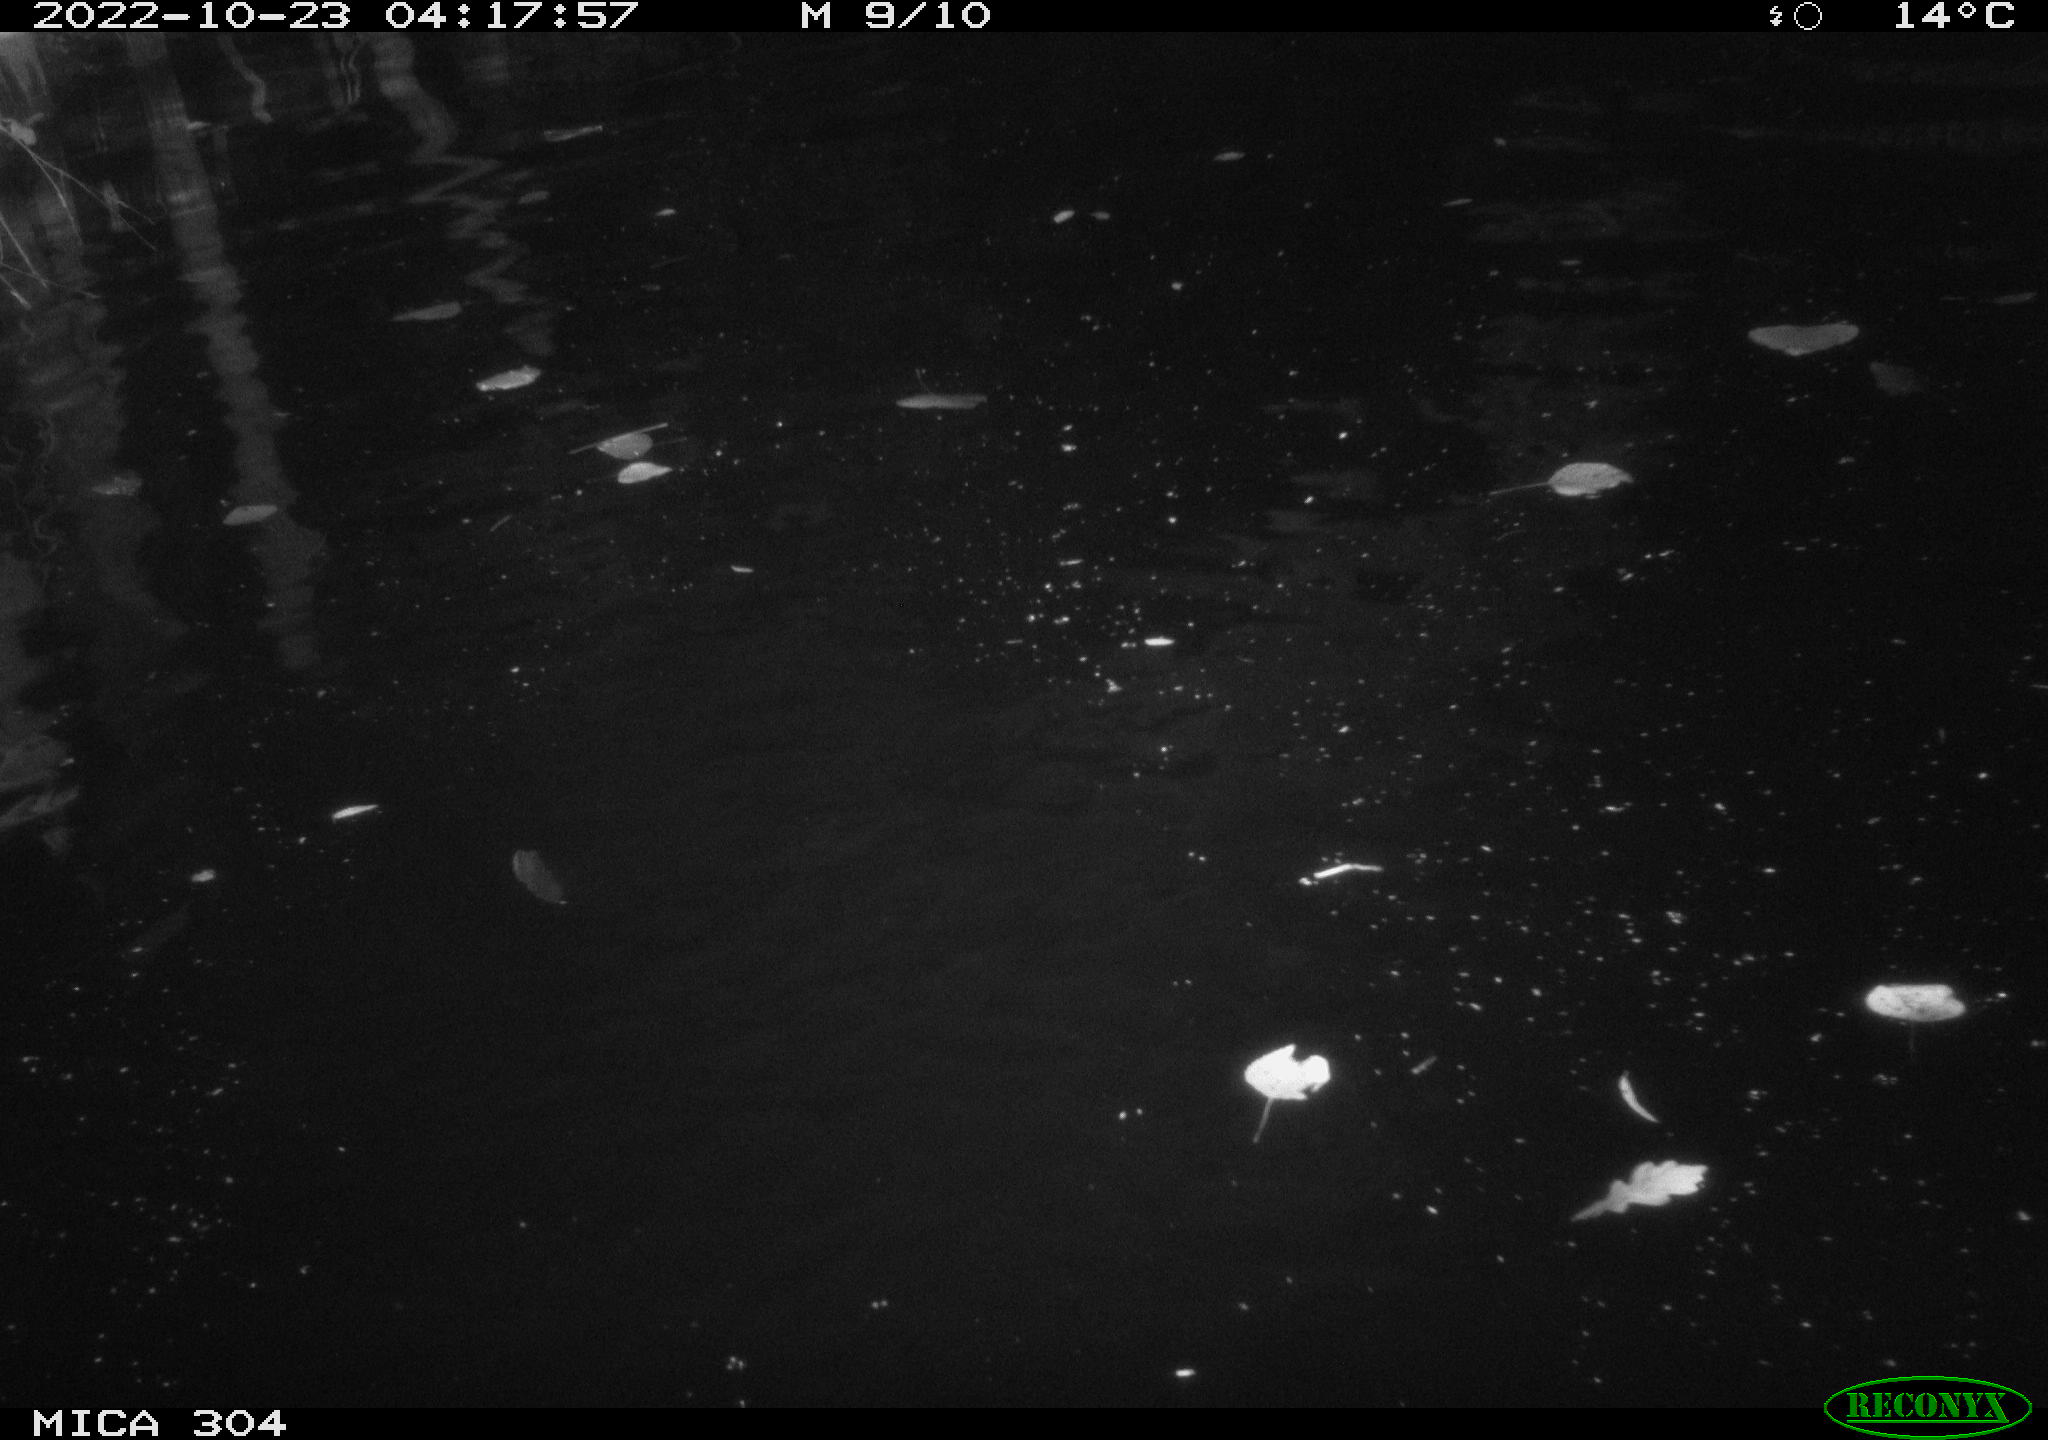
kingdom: Animalia
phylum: Chordata
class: Aves
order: Anseriformes
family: Anatidae
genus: Anas
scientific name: Anas
